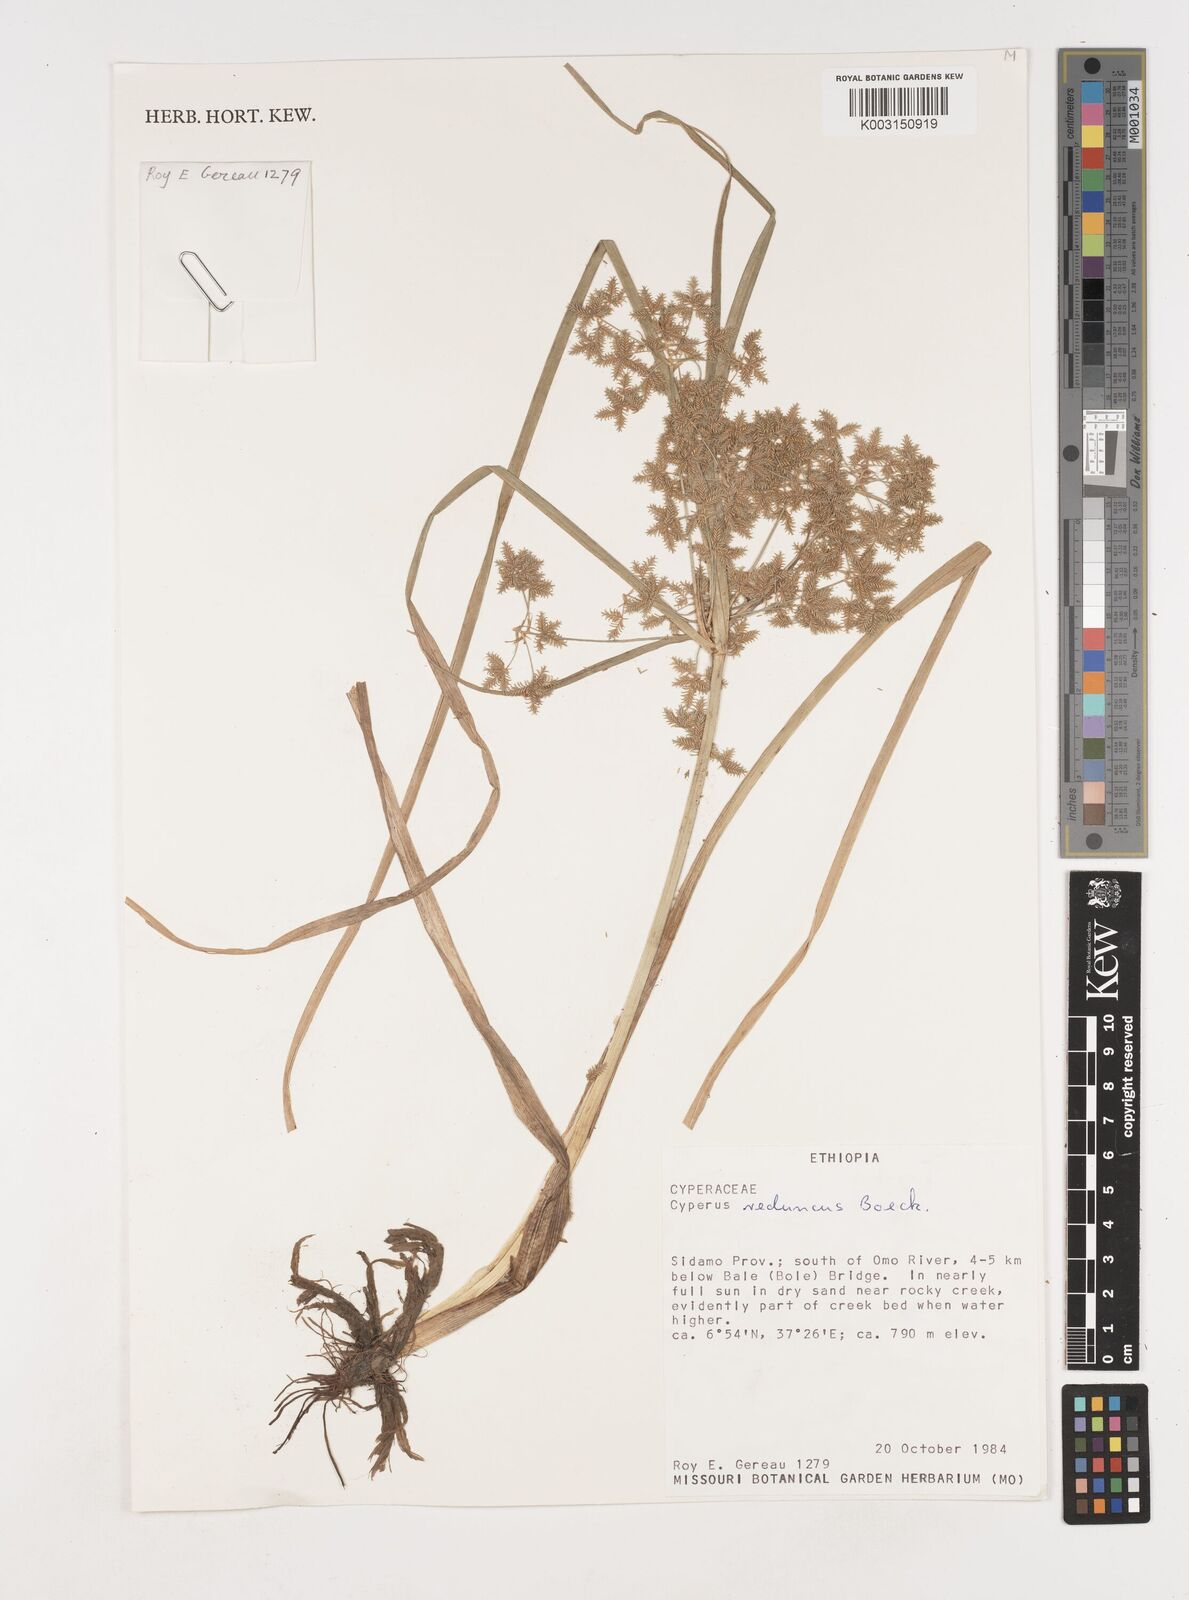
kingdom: Plantae
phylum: Tracheophyta
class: Liliopsida
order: Poales
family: Cyperaceae
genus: Cyperus
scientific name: Cyperus reduncus
